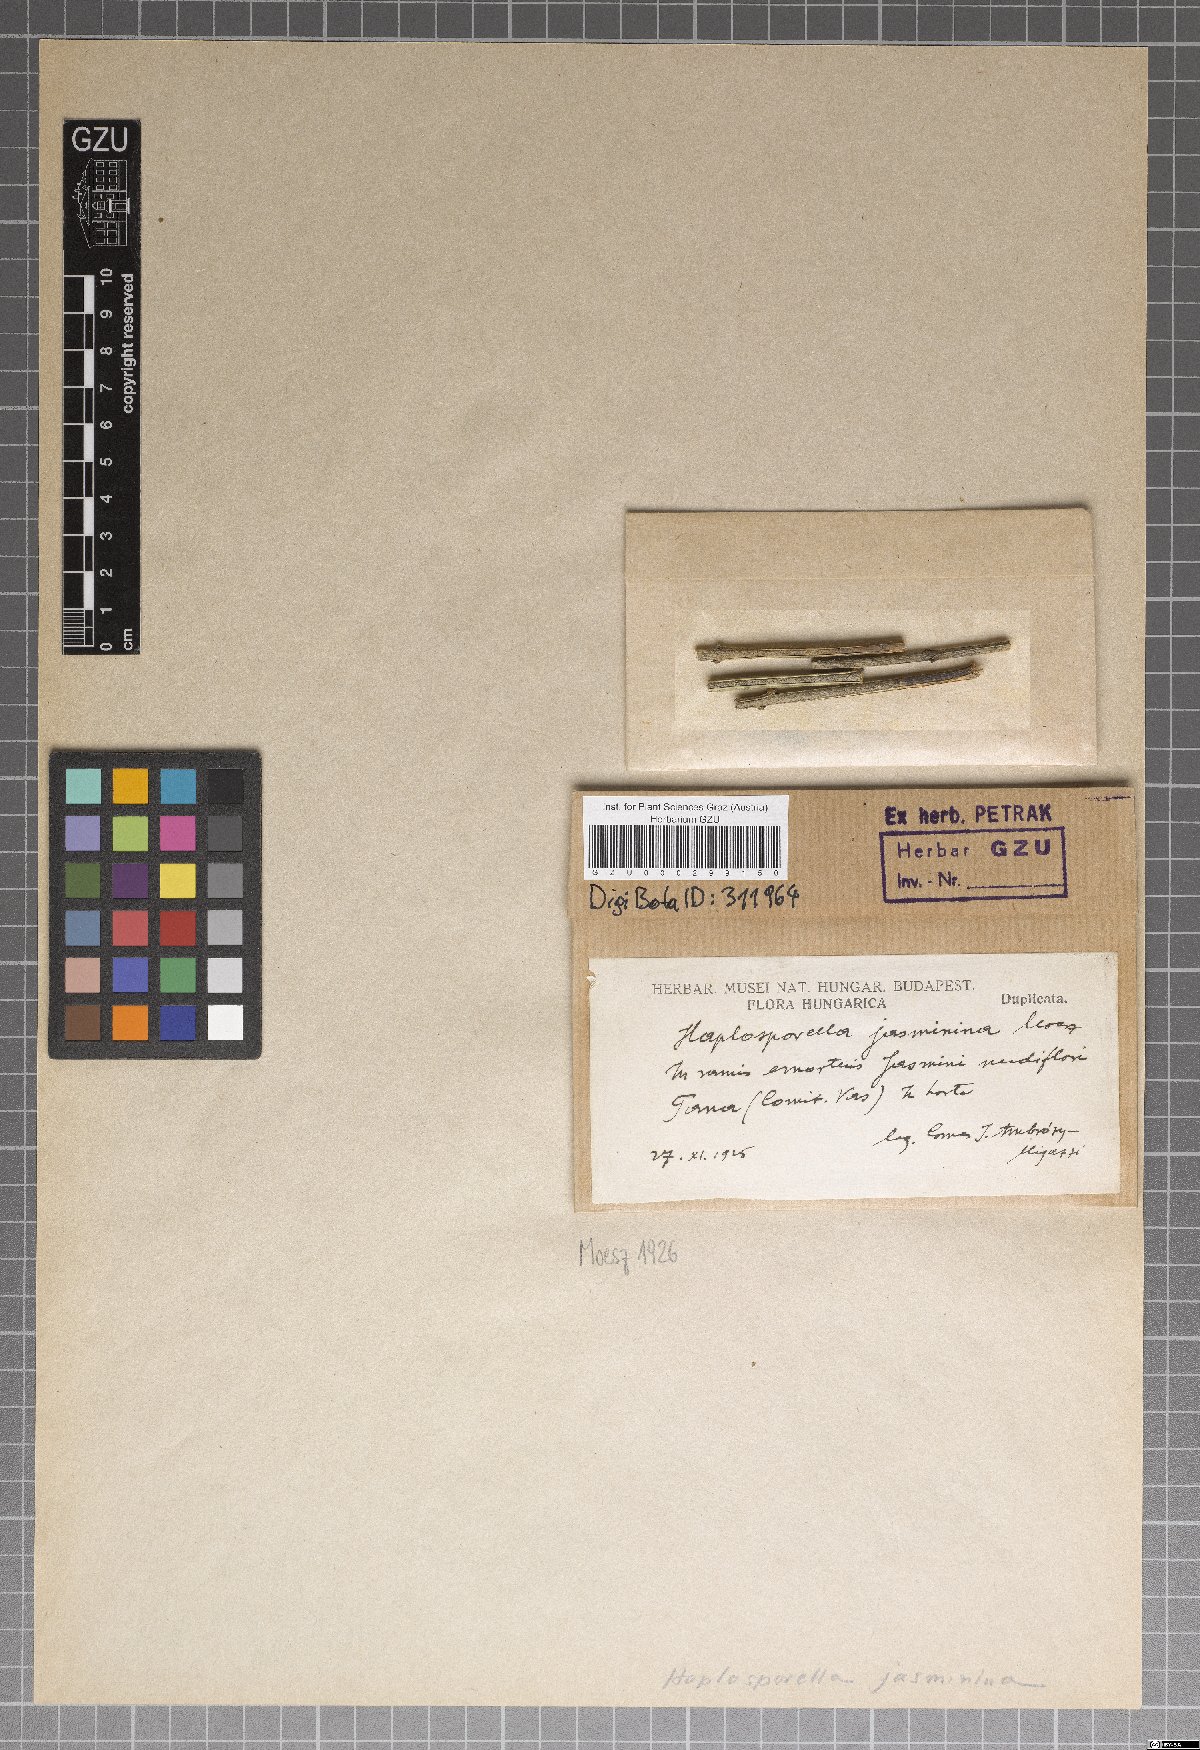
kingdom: Fungi
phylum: Ascomycota
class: Dothideomycetes
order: Botryosphaeriales
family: Aplosporellaceae
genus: Aplosporella
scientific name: Aplosporella jasminina
